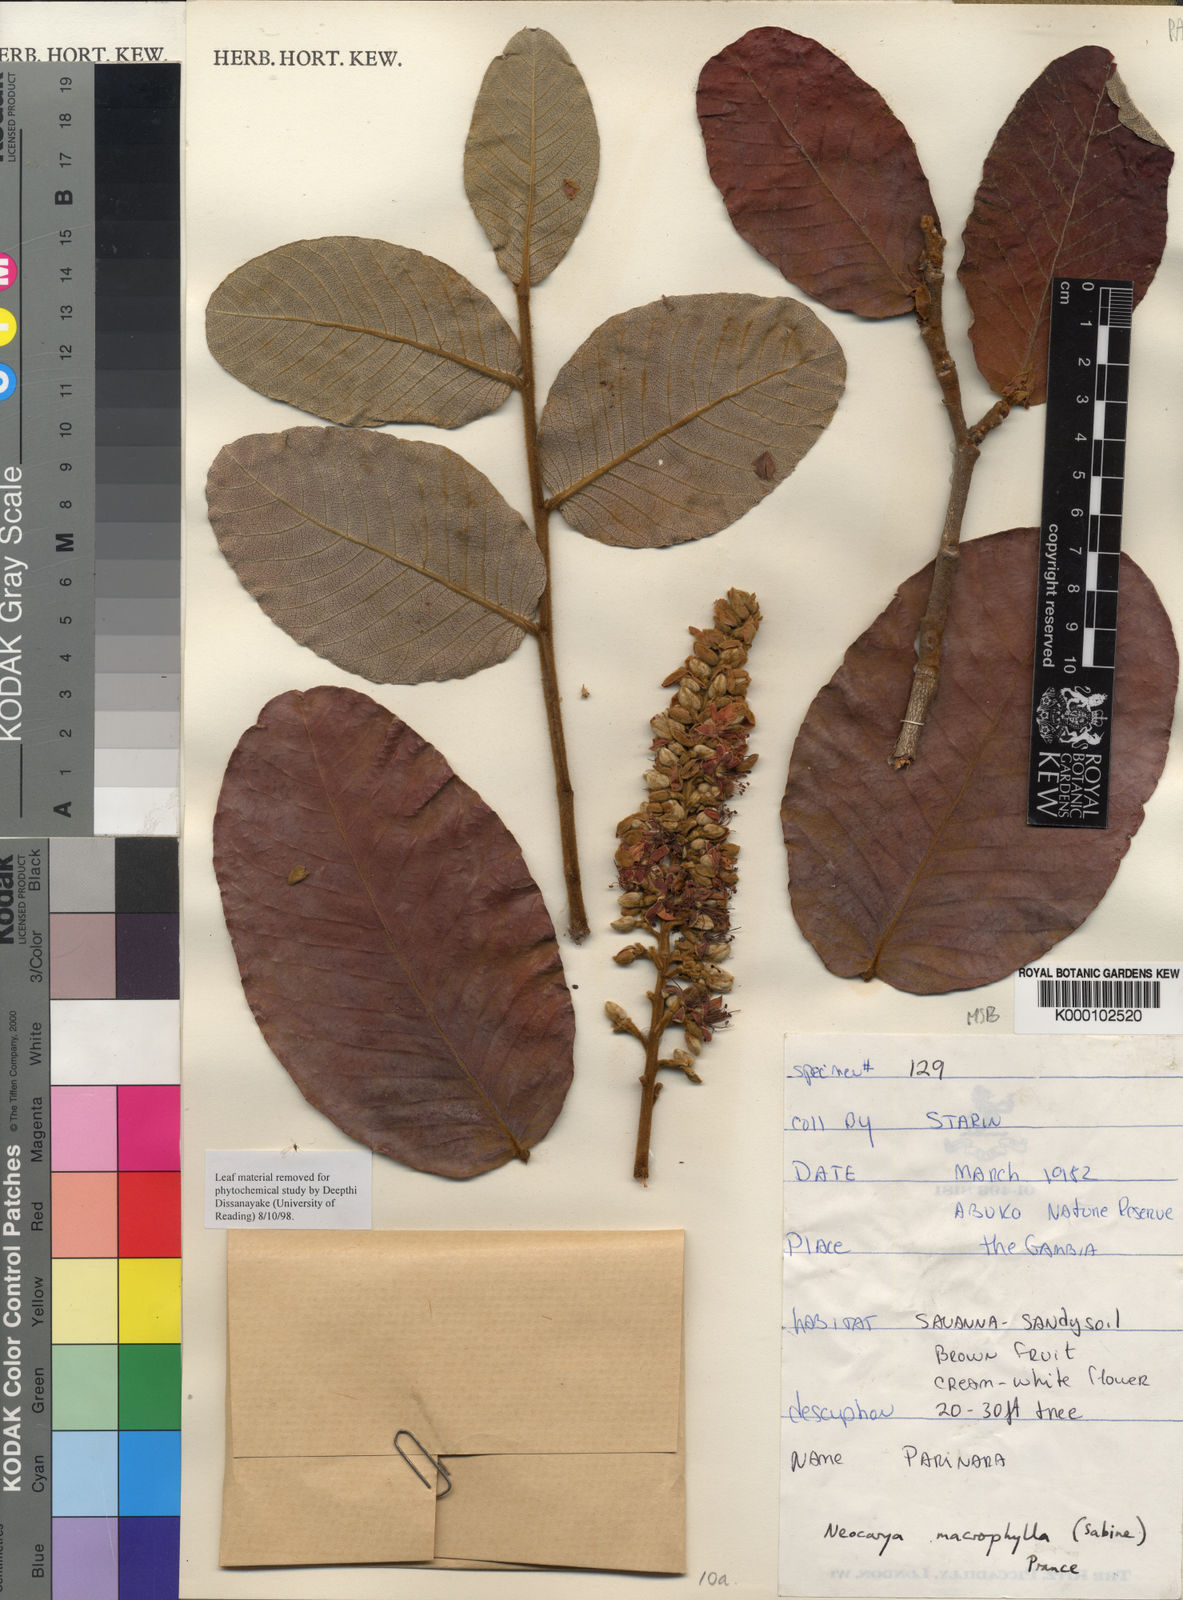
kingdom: Plantae
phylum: Tracheophyta
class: Magnoliopsida
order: Malpighiales
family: Chrysobalanaceae
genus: Neocarya
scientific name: Neocarya
